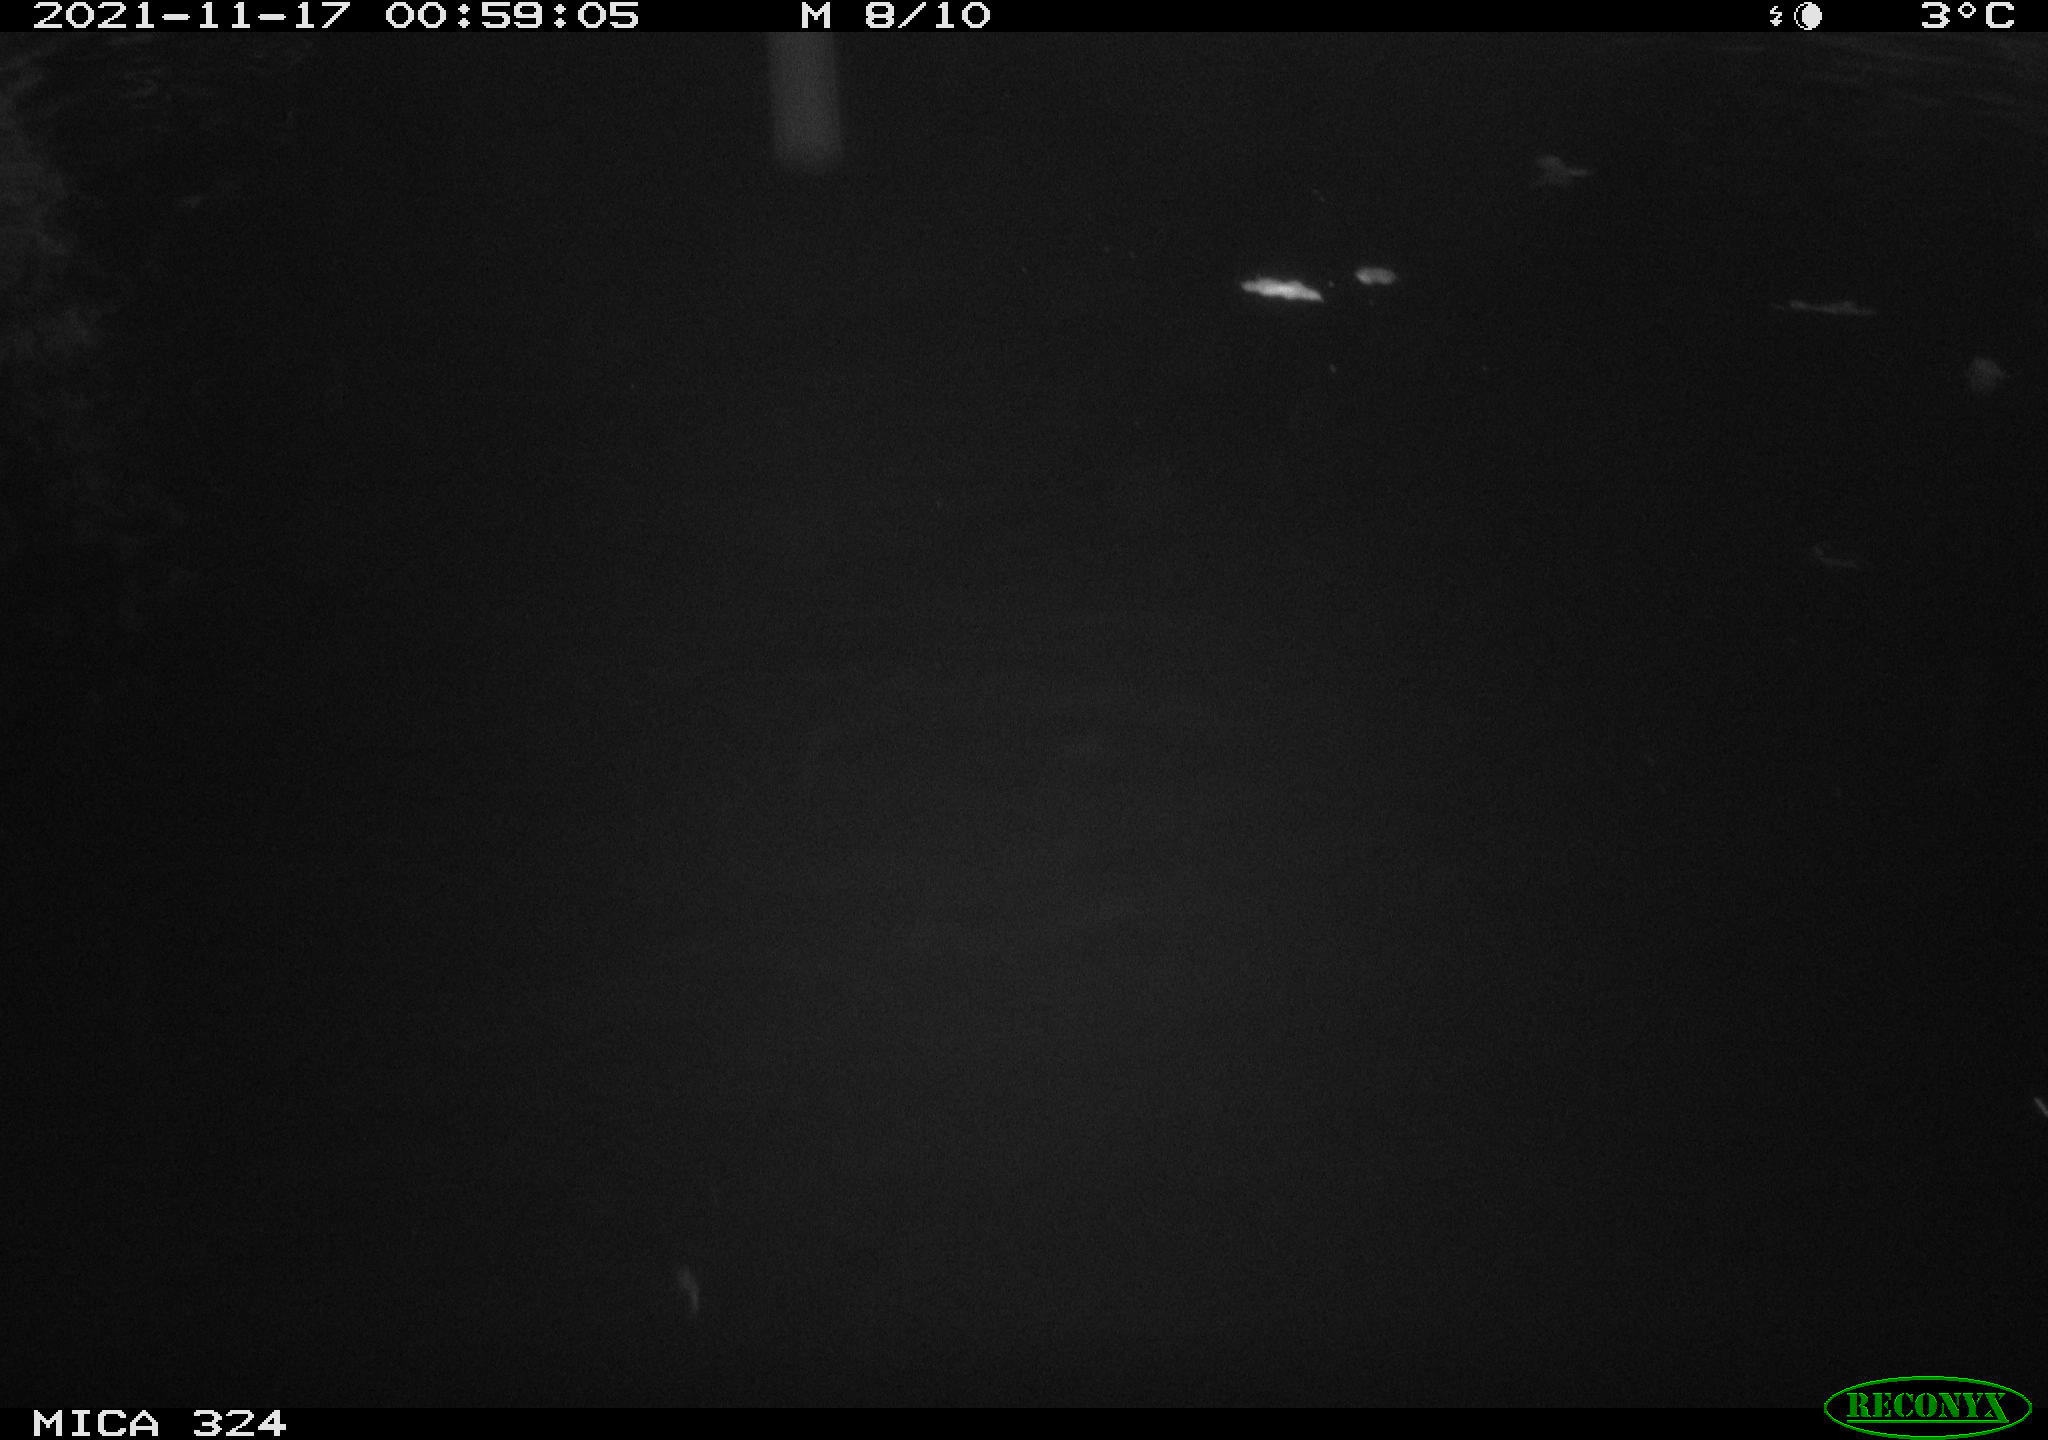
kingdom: Animalia
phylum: Chordata
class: Mammalia
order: Rodentia
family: Cricetidae
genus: Ondatra
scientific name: Ondatra zibethicus
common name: Muskrat
